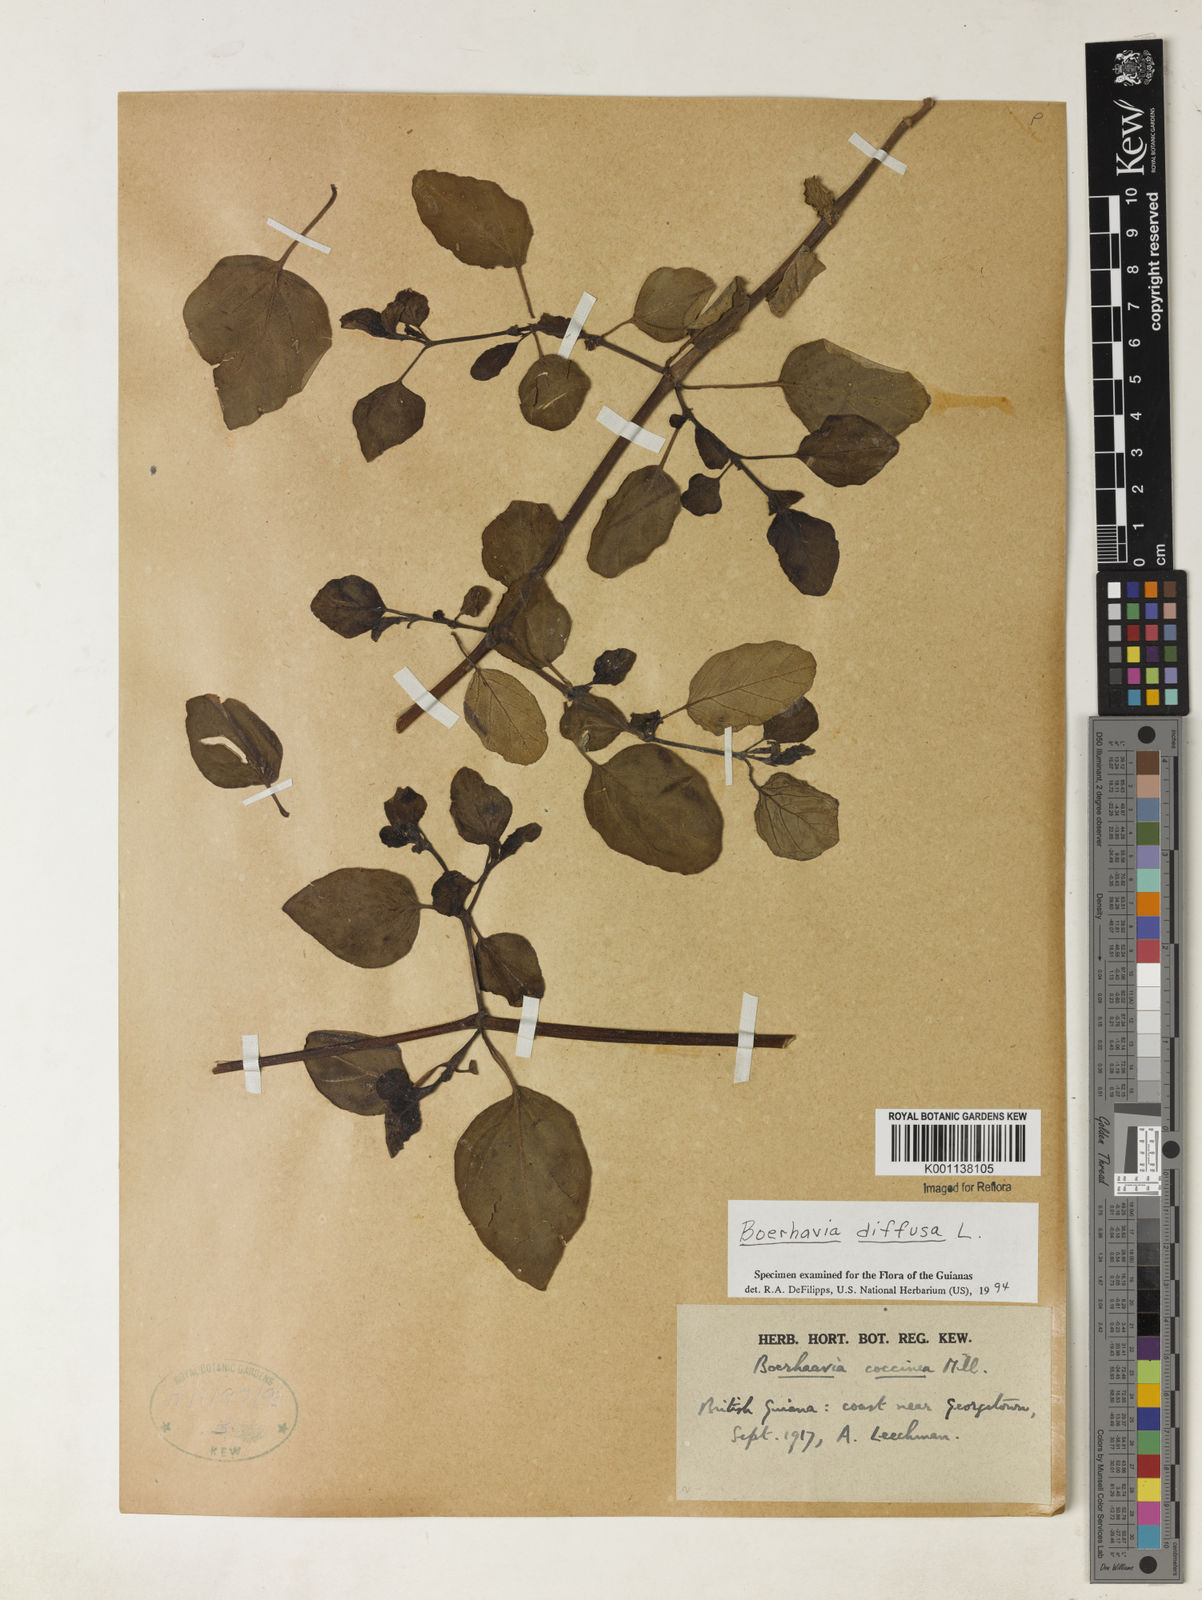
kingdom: Plantae
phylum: Tracheophyta
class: Magnoliopsida
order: Caryophyllales
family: Nyctaginaceae
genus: Boerhavia
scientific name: Boerhavia diffusa
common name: Red spiderling
